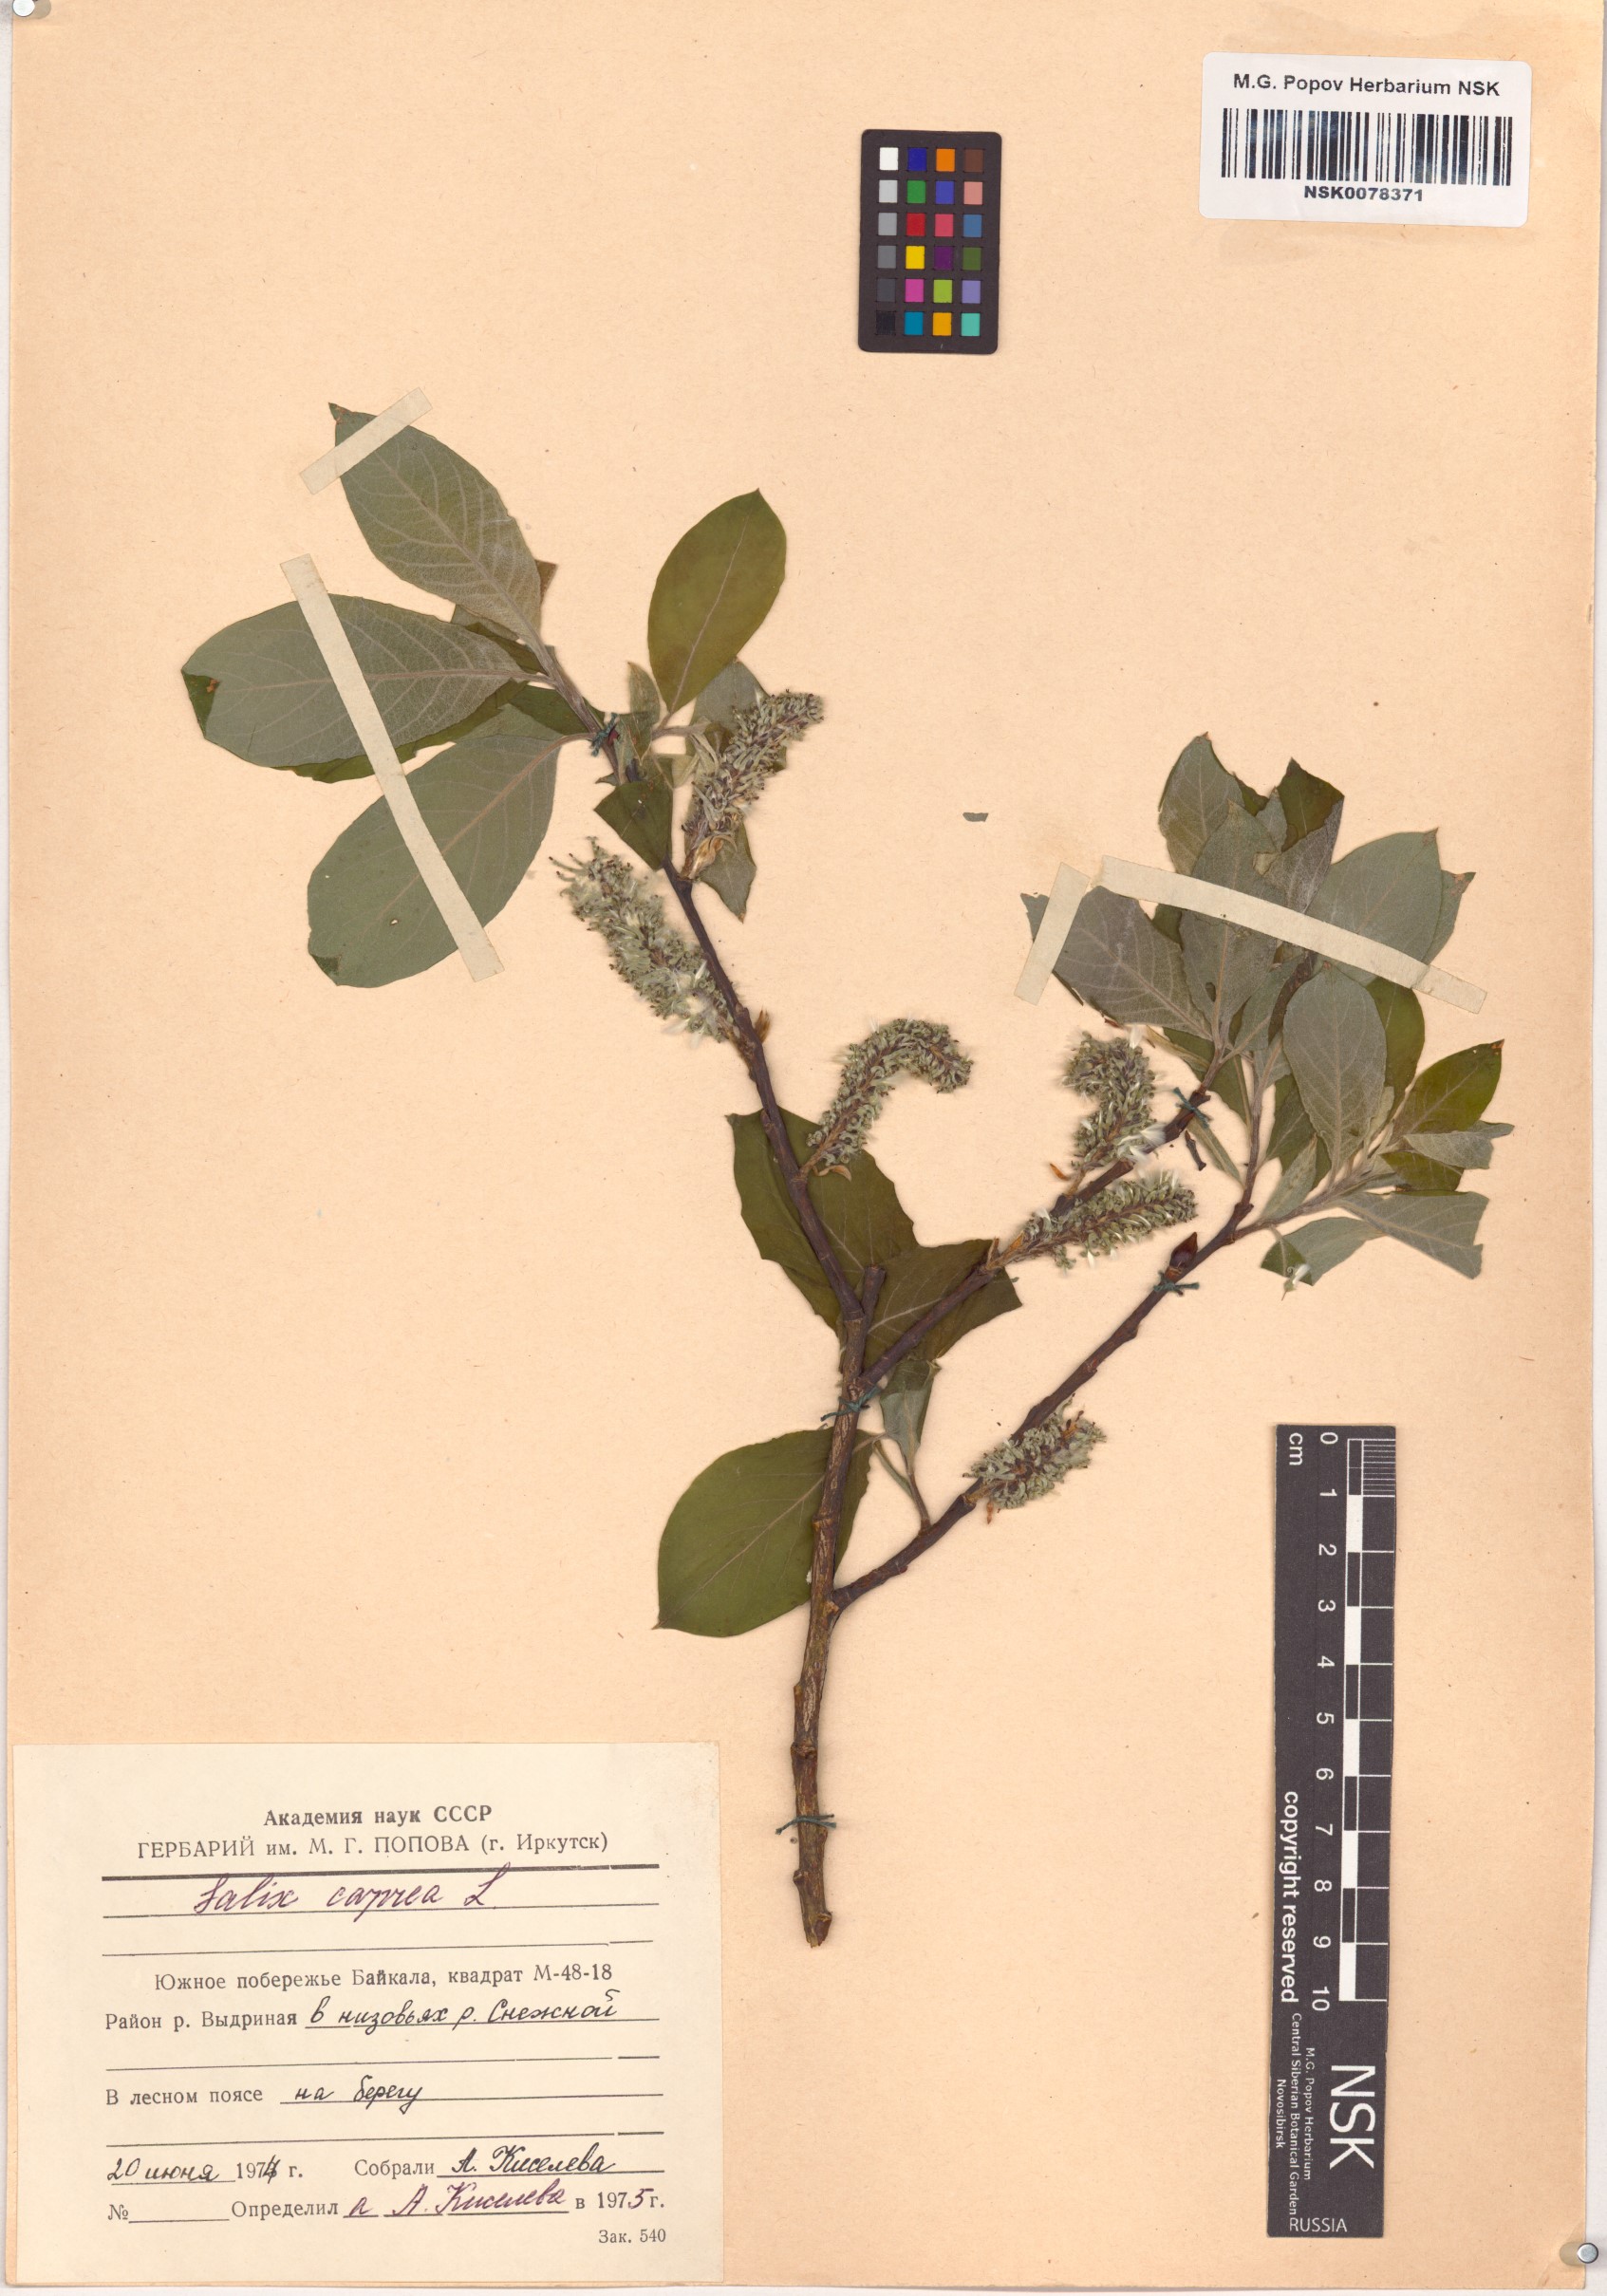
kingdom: Plantae
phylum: Tracheophyta
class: Magnoliopsida
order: Malpighiales
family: Salicaceae
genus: Salix
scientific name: Salix caprea
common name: Goat willow
